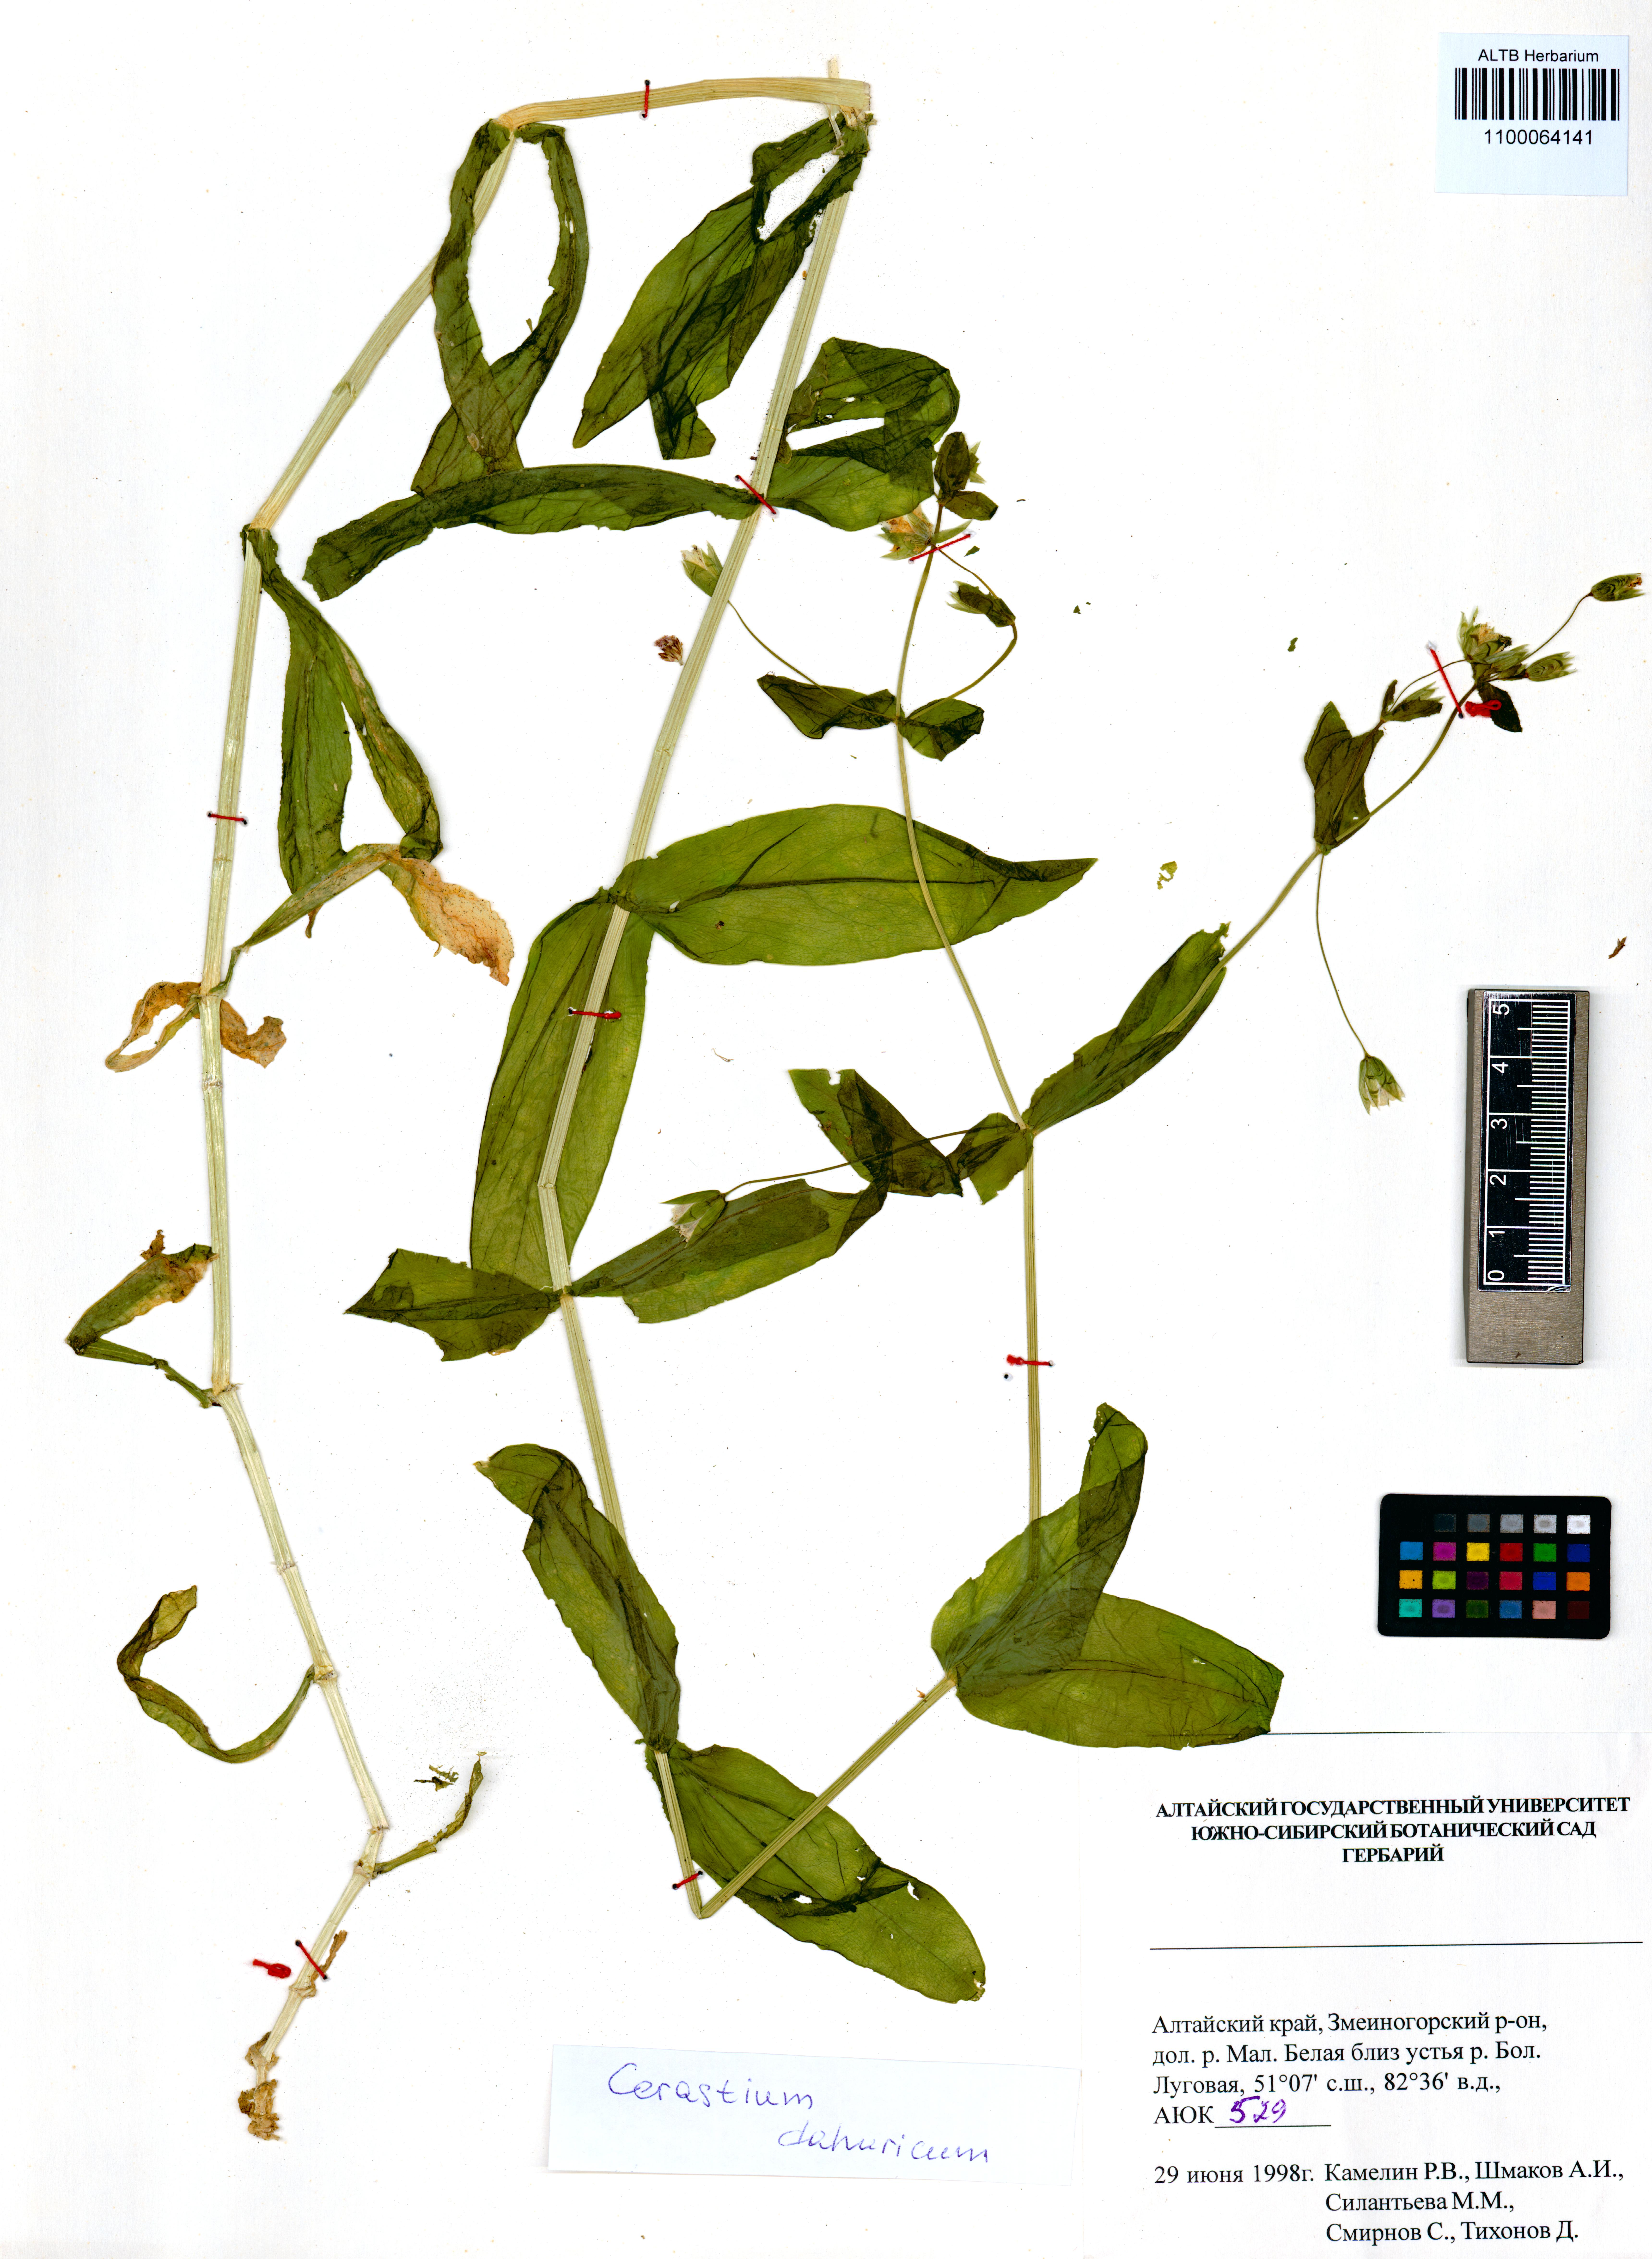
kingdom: Plantae
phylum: Tracheophyta
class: Magnoliopsida
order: Caryophyllales
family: Caryophyllaceae
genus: Dichodon
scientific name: Dichodon davuricum
